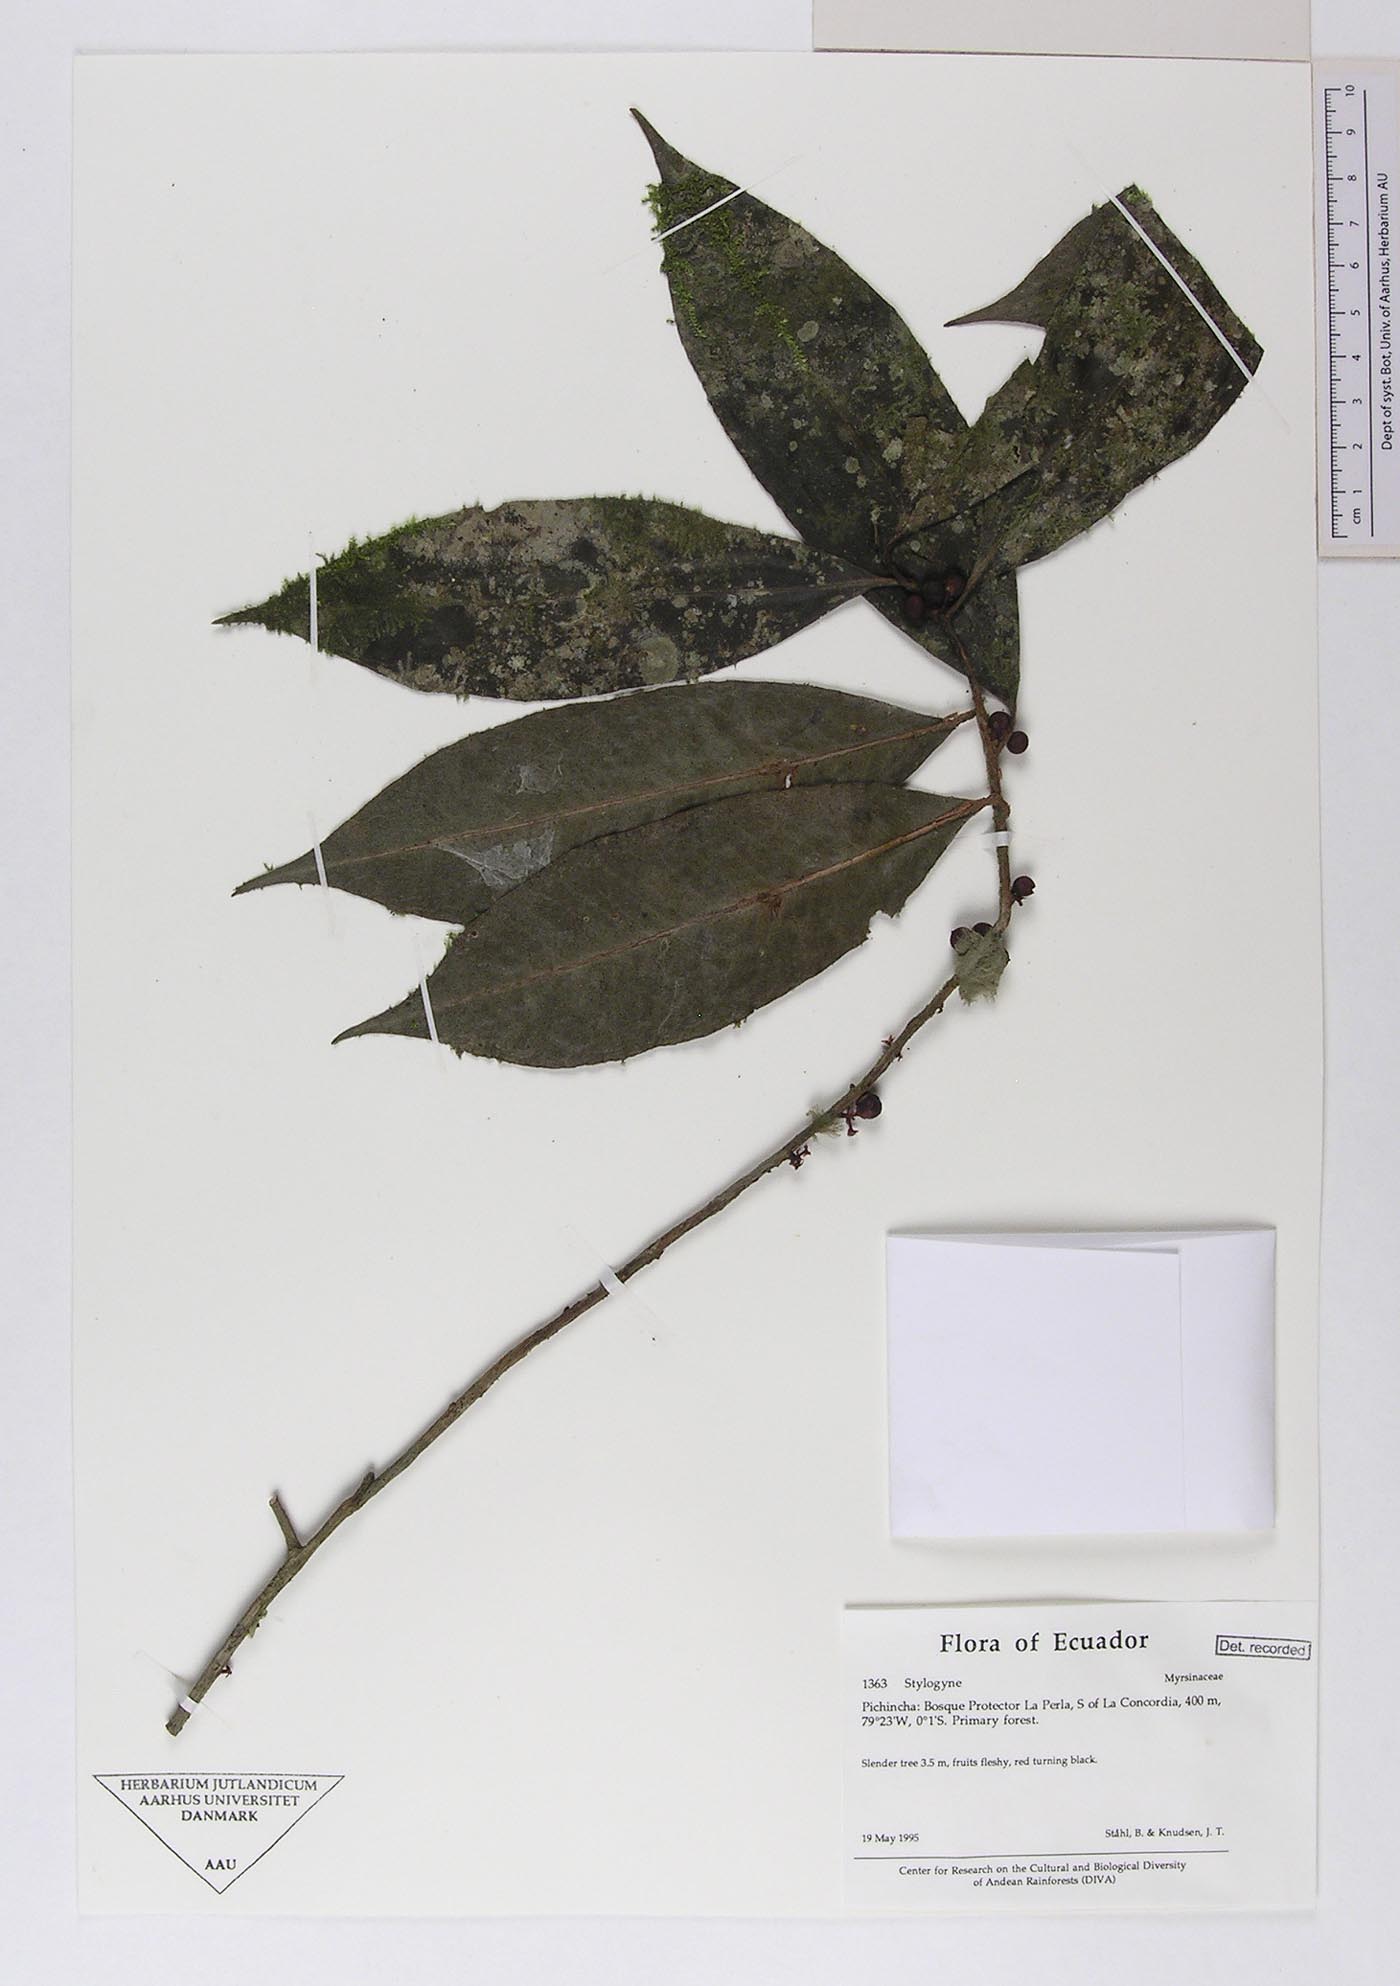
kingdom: Plantae
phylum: Tracheophyta
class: Magnoliopsida
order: Ericales
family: Primulaceae
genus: Stylogyne
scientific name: Stylogyne
